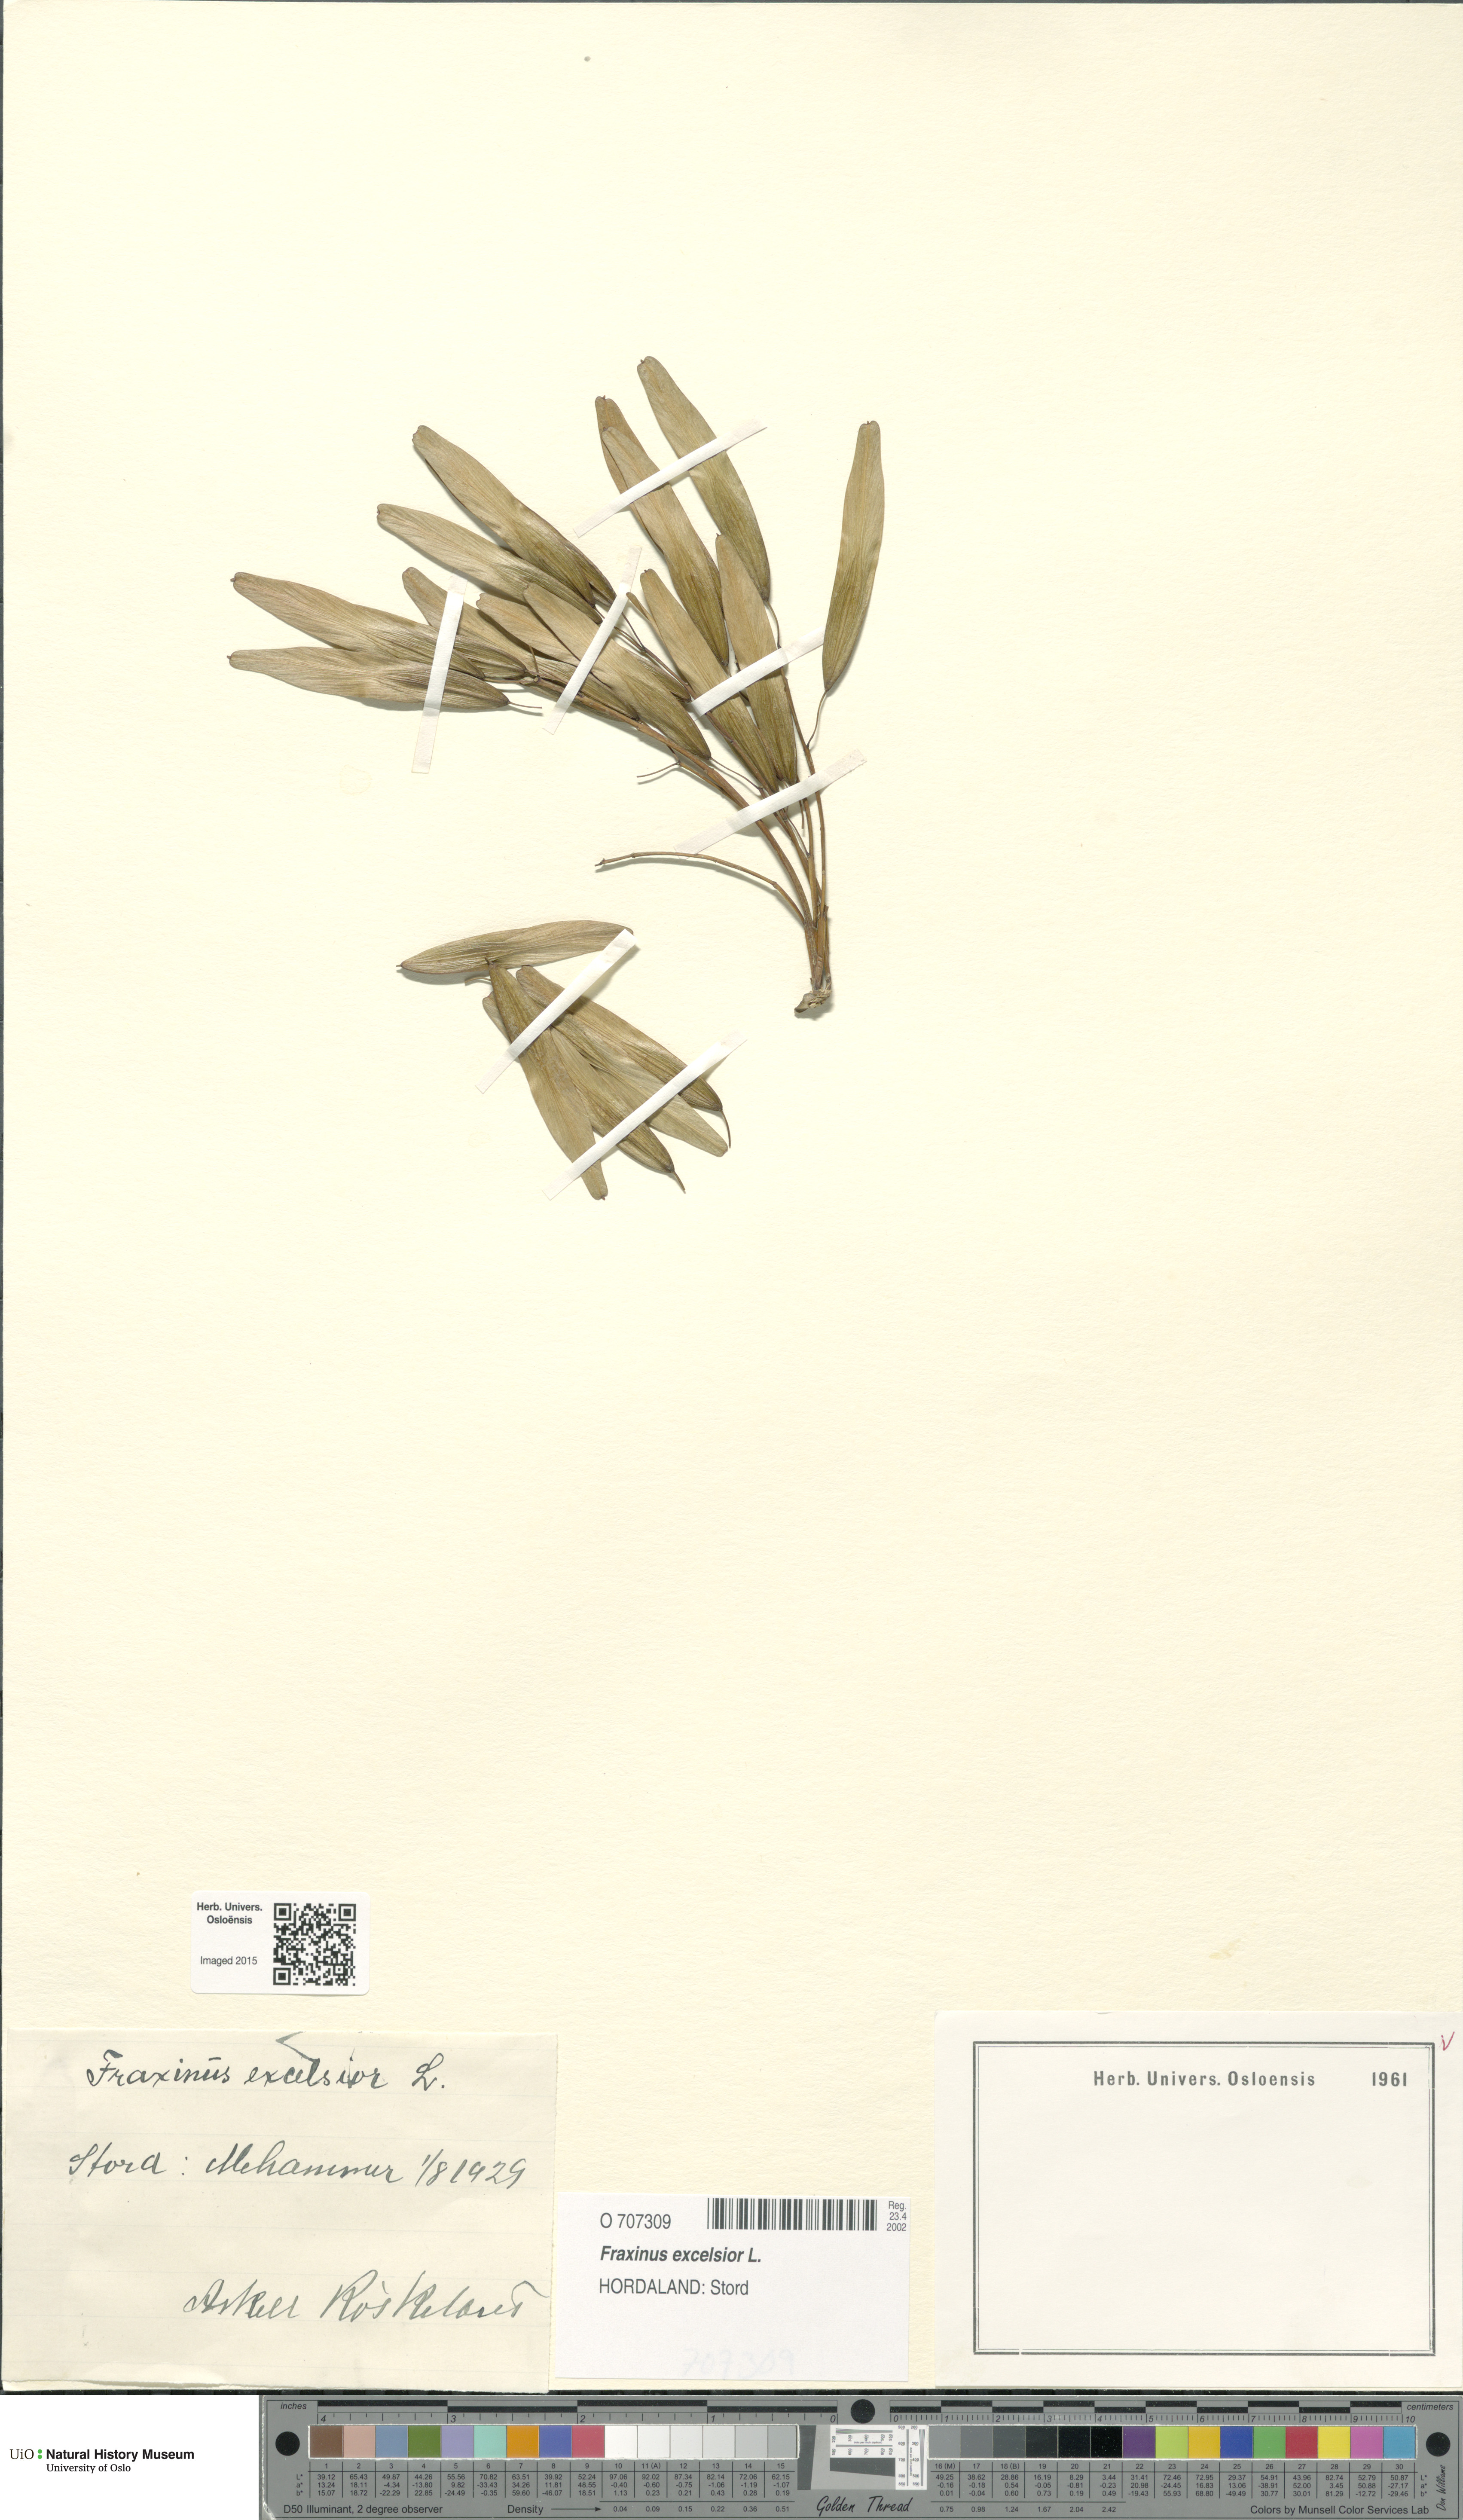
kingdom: Plantae
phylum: Tracheophyta
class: Magnoliopsida
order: Lamiales
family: Oleaceae
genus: Fraxinus
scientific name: Fraxinus excelsior
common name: European ash
